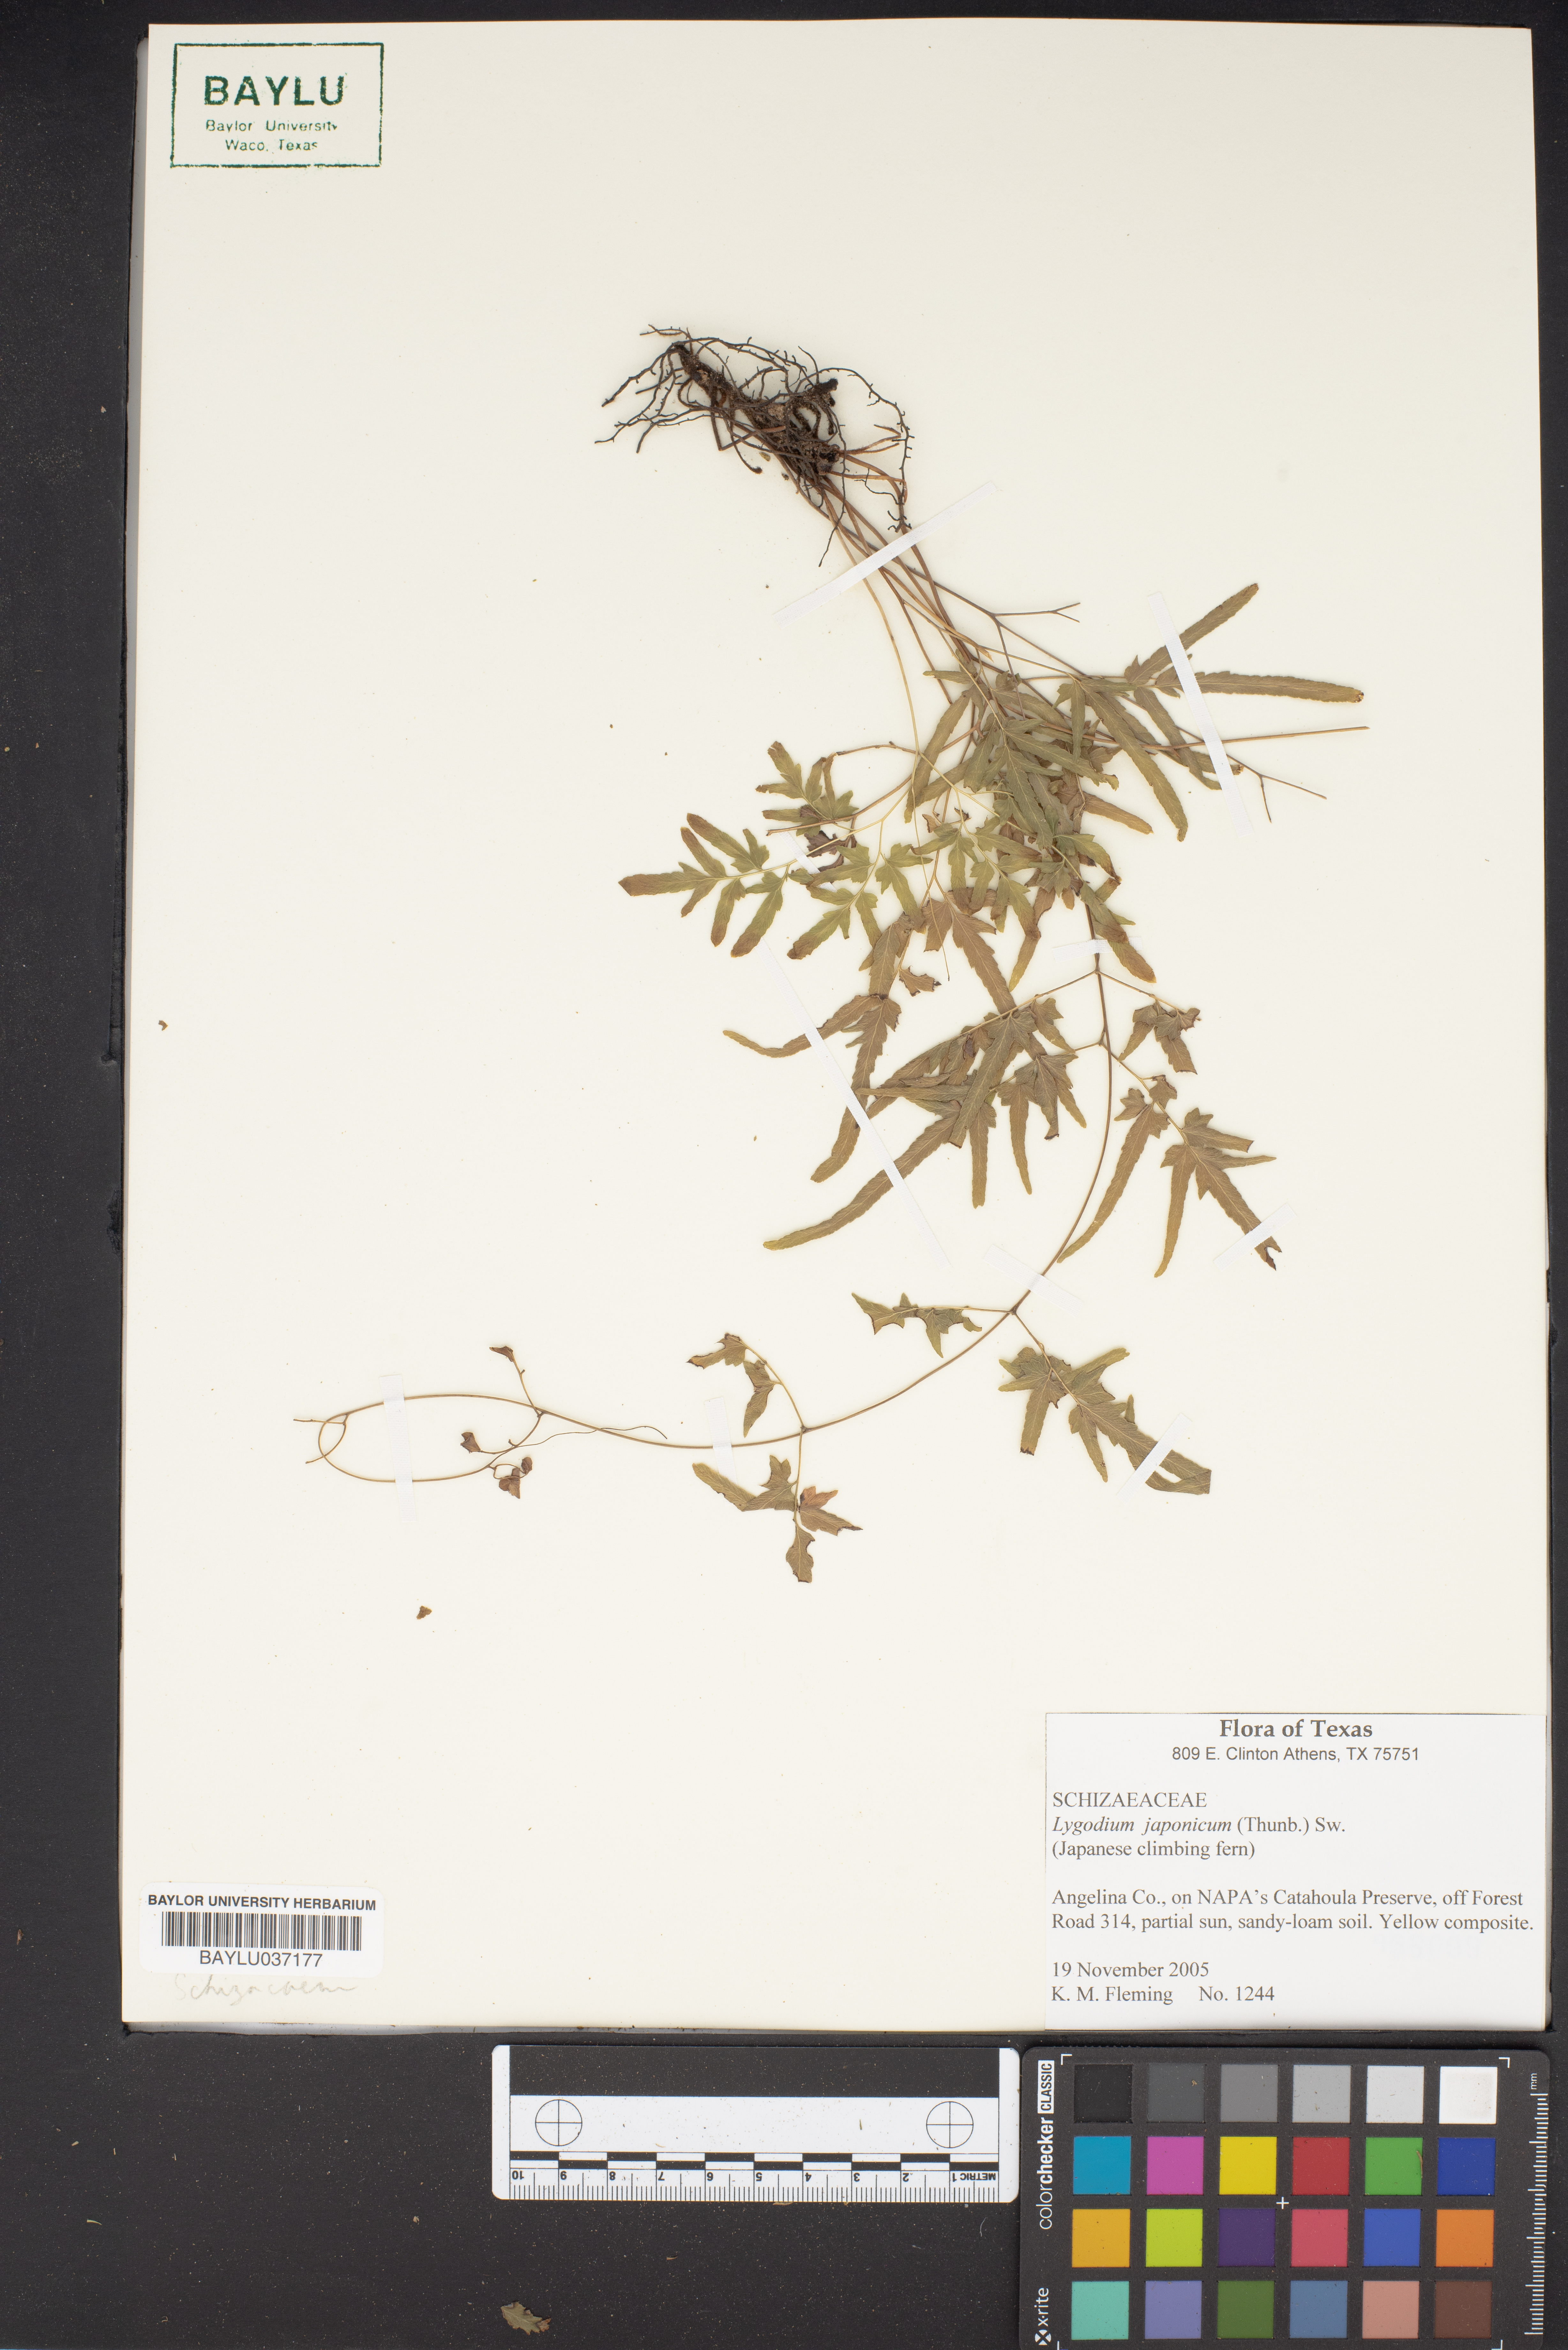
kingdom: Plantae
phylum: Tracheophyta
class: Polypodiopsida
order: Schizaeales
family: Lygodiaceae
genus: Lygodium
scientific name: Lygodium japonicum
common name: Japanese climbing fern
